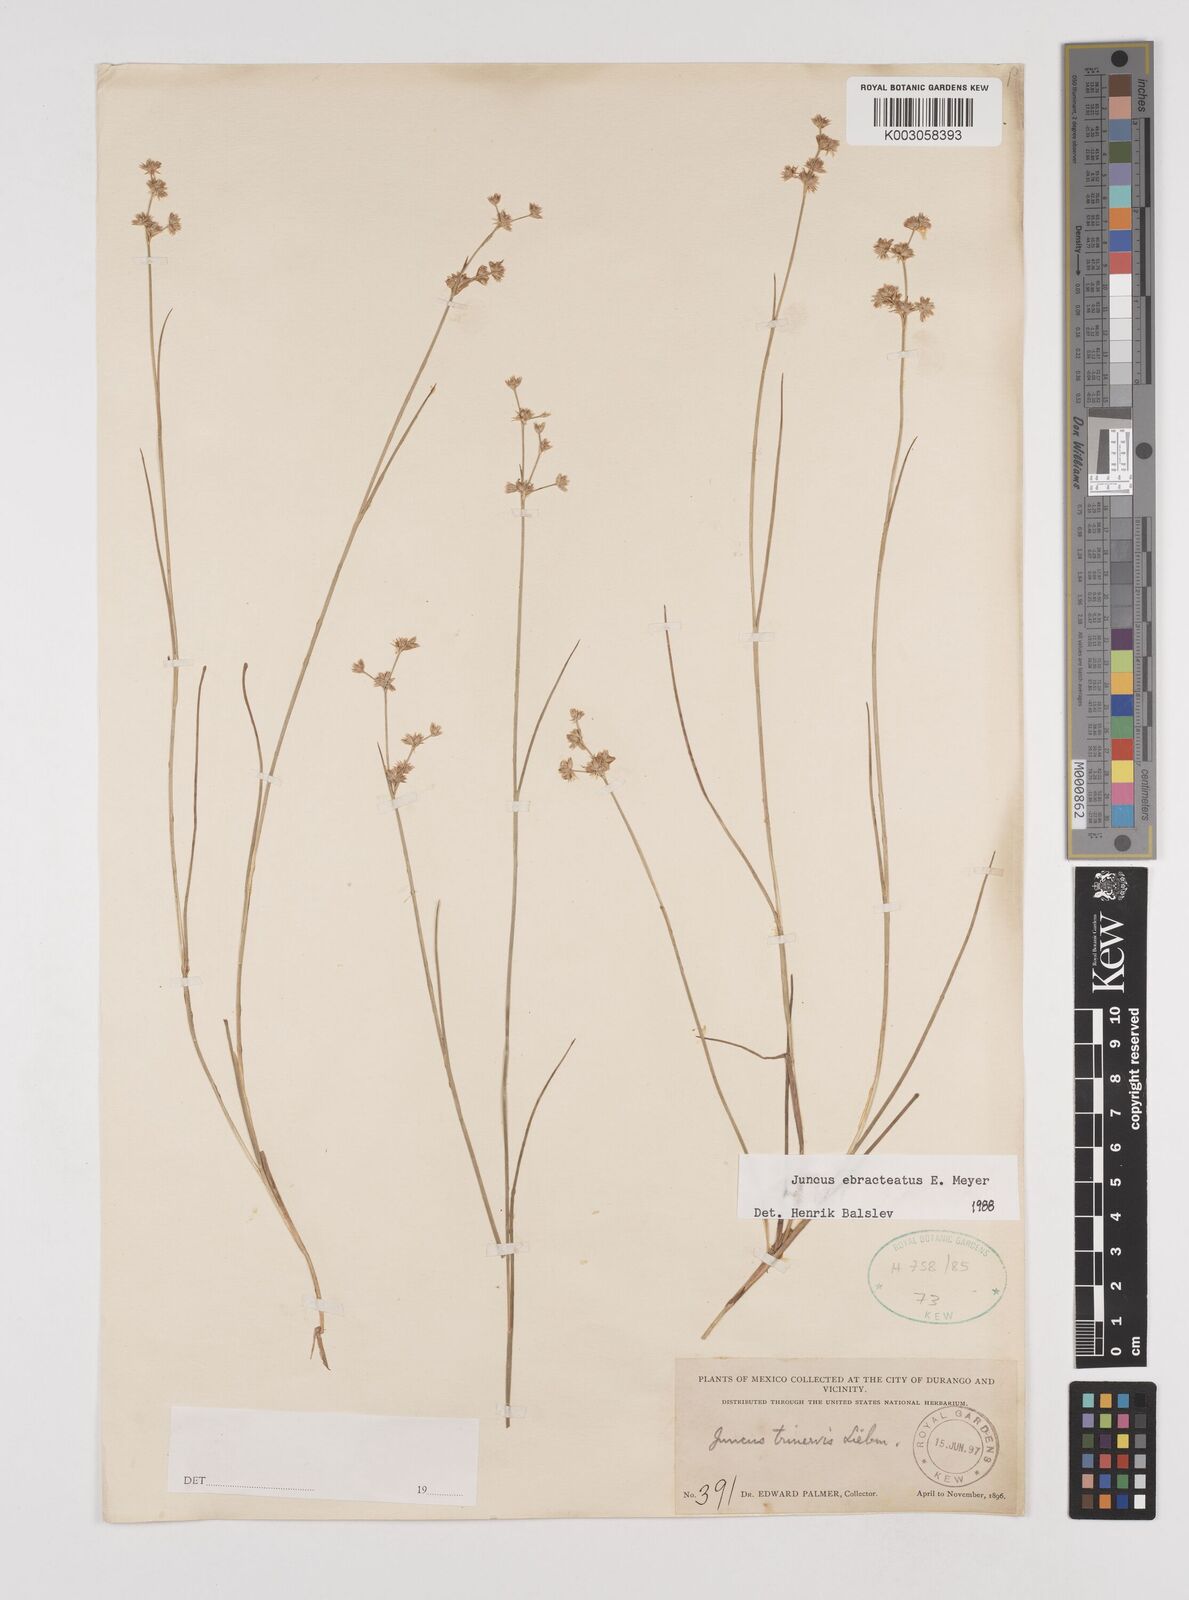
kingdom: Plantae
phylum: Tracheophyta
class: Liliopsida
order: Poales
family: Juncaceae
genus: Juncus
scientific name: Juncus ebracteatus
